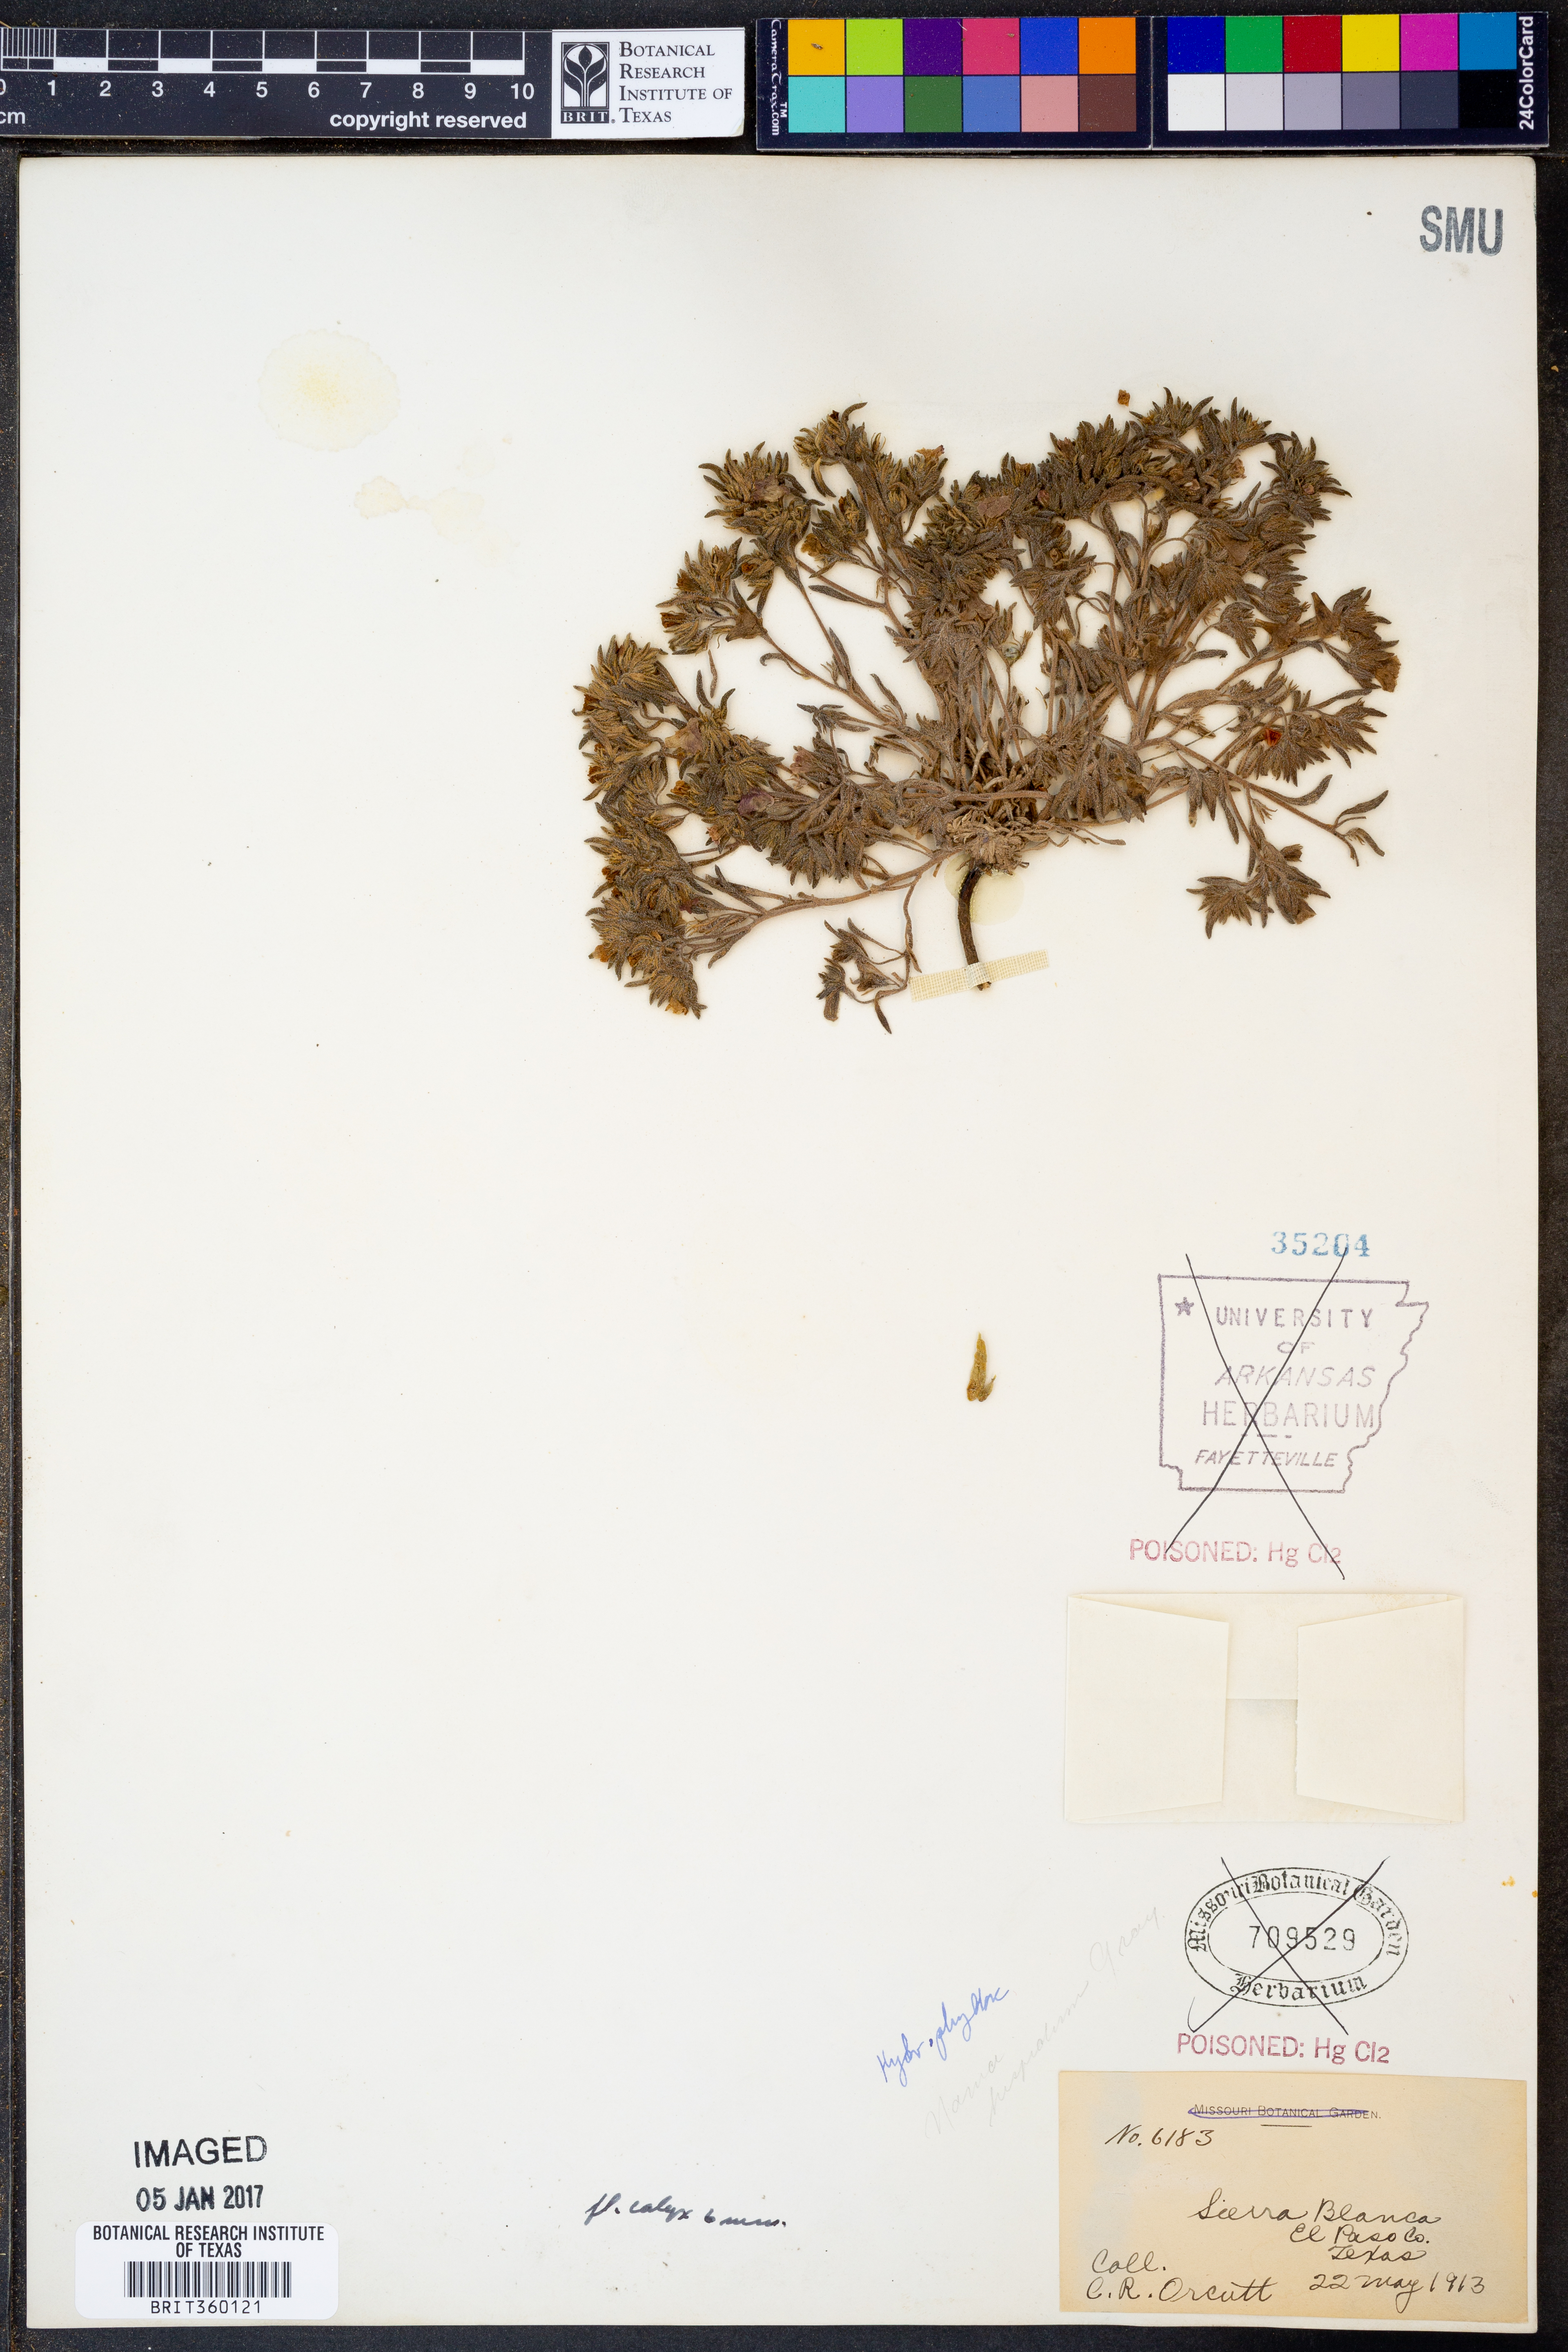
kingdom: Plantae
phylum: Tracheophyta
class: Magnoliopsida
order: Boraginales
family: Namaceae
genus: Nama
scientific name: Nama hispida
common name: Bristly nama
